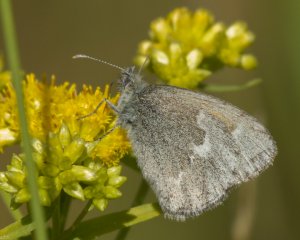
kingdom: Animalia
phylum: Arthropoda
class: Insecta
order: Lepidoptera
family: Nymphalidae
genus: Coenonympha
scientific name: Coenonympha tullia
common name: Large Heath
